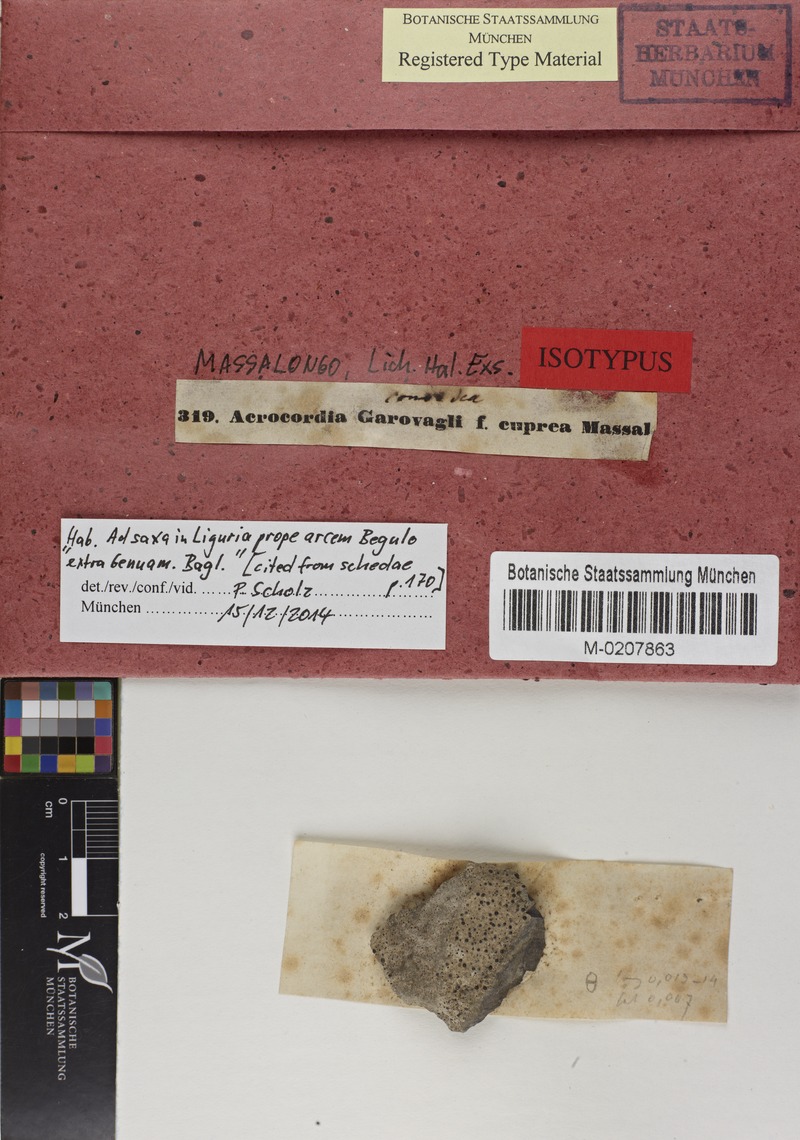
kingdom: Fungi
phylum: Ascomycota
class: Dothideomycetes
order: Monoblastiales
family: Monoblastiaceae
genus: Acrocordia
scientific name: Acrocordia conoidea
